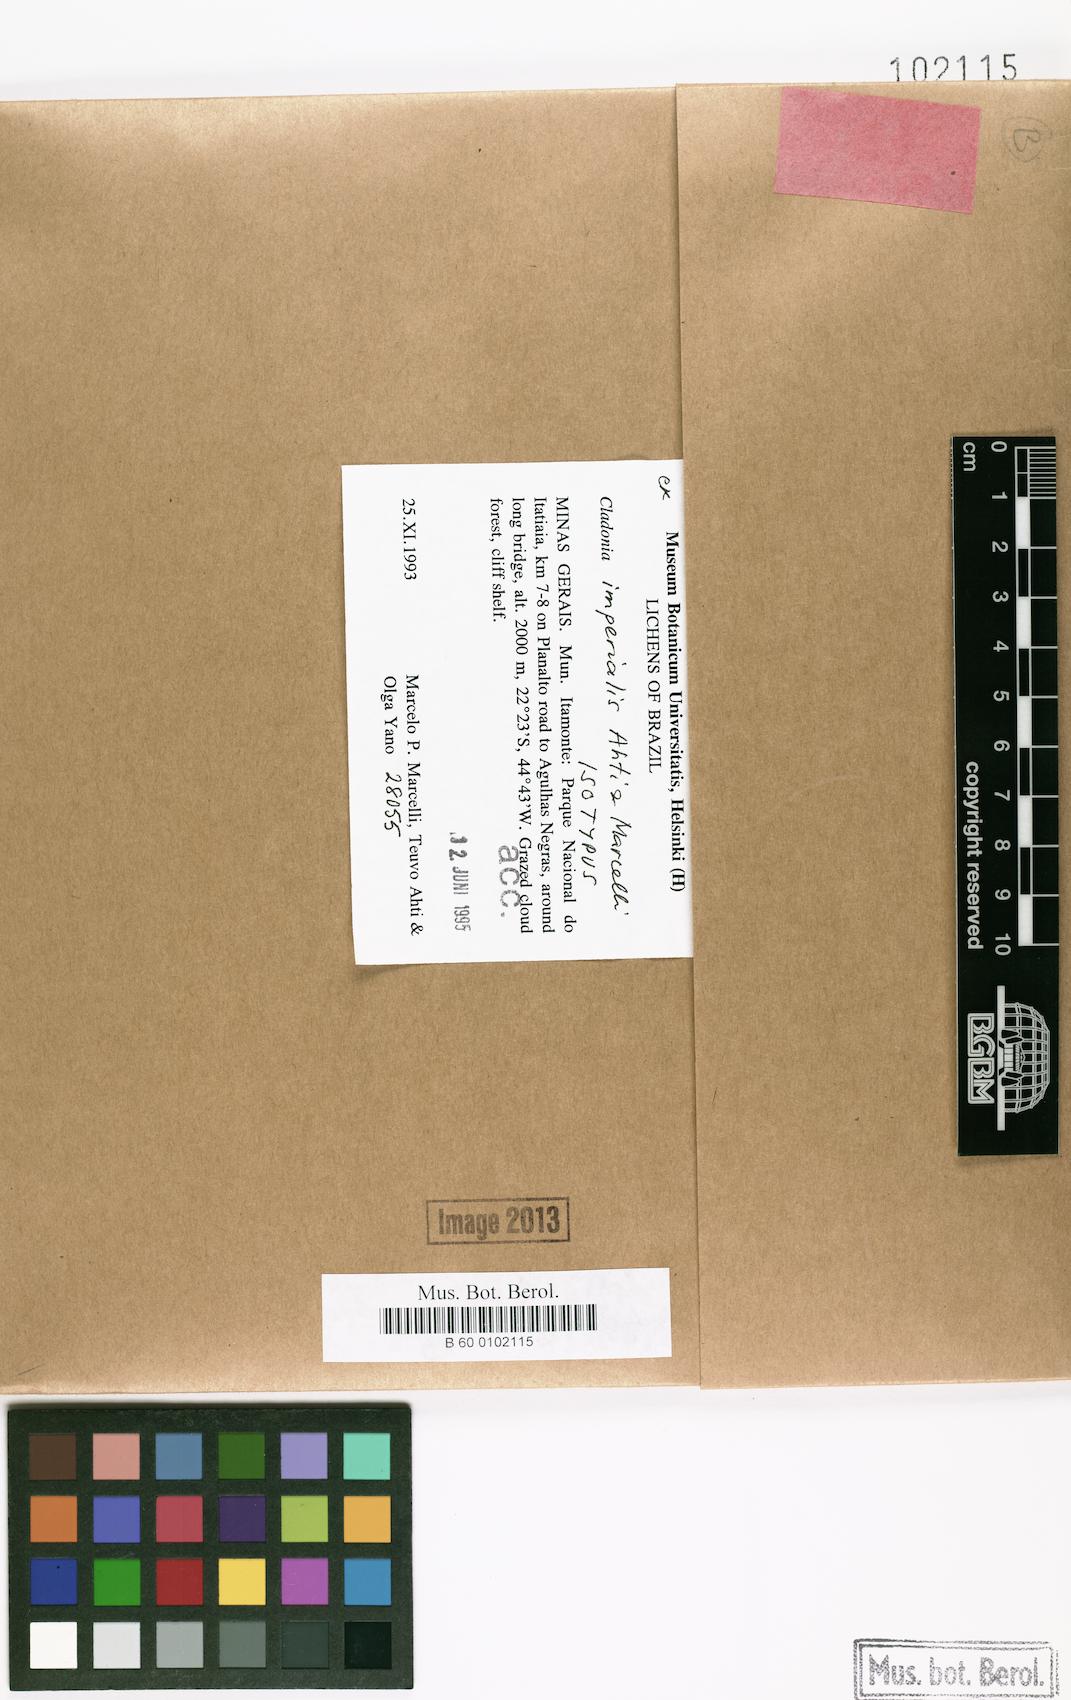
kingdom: Fungi
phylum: Ascomycota
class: Lecanoromycetes
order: Lecanorales
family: Cladoniaceae
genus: Cladonia
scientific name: Cladonia imperialis
